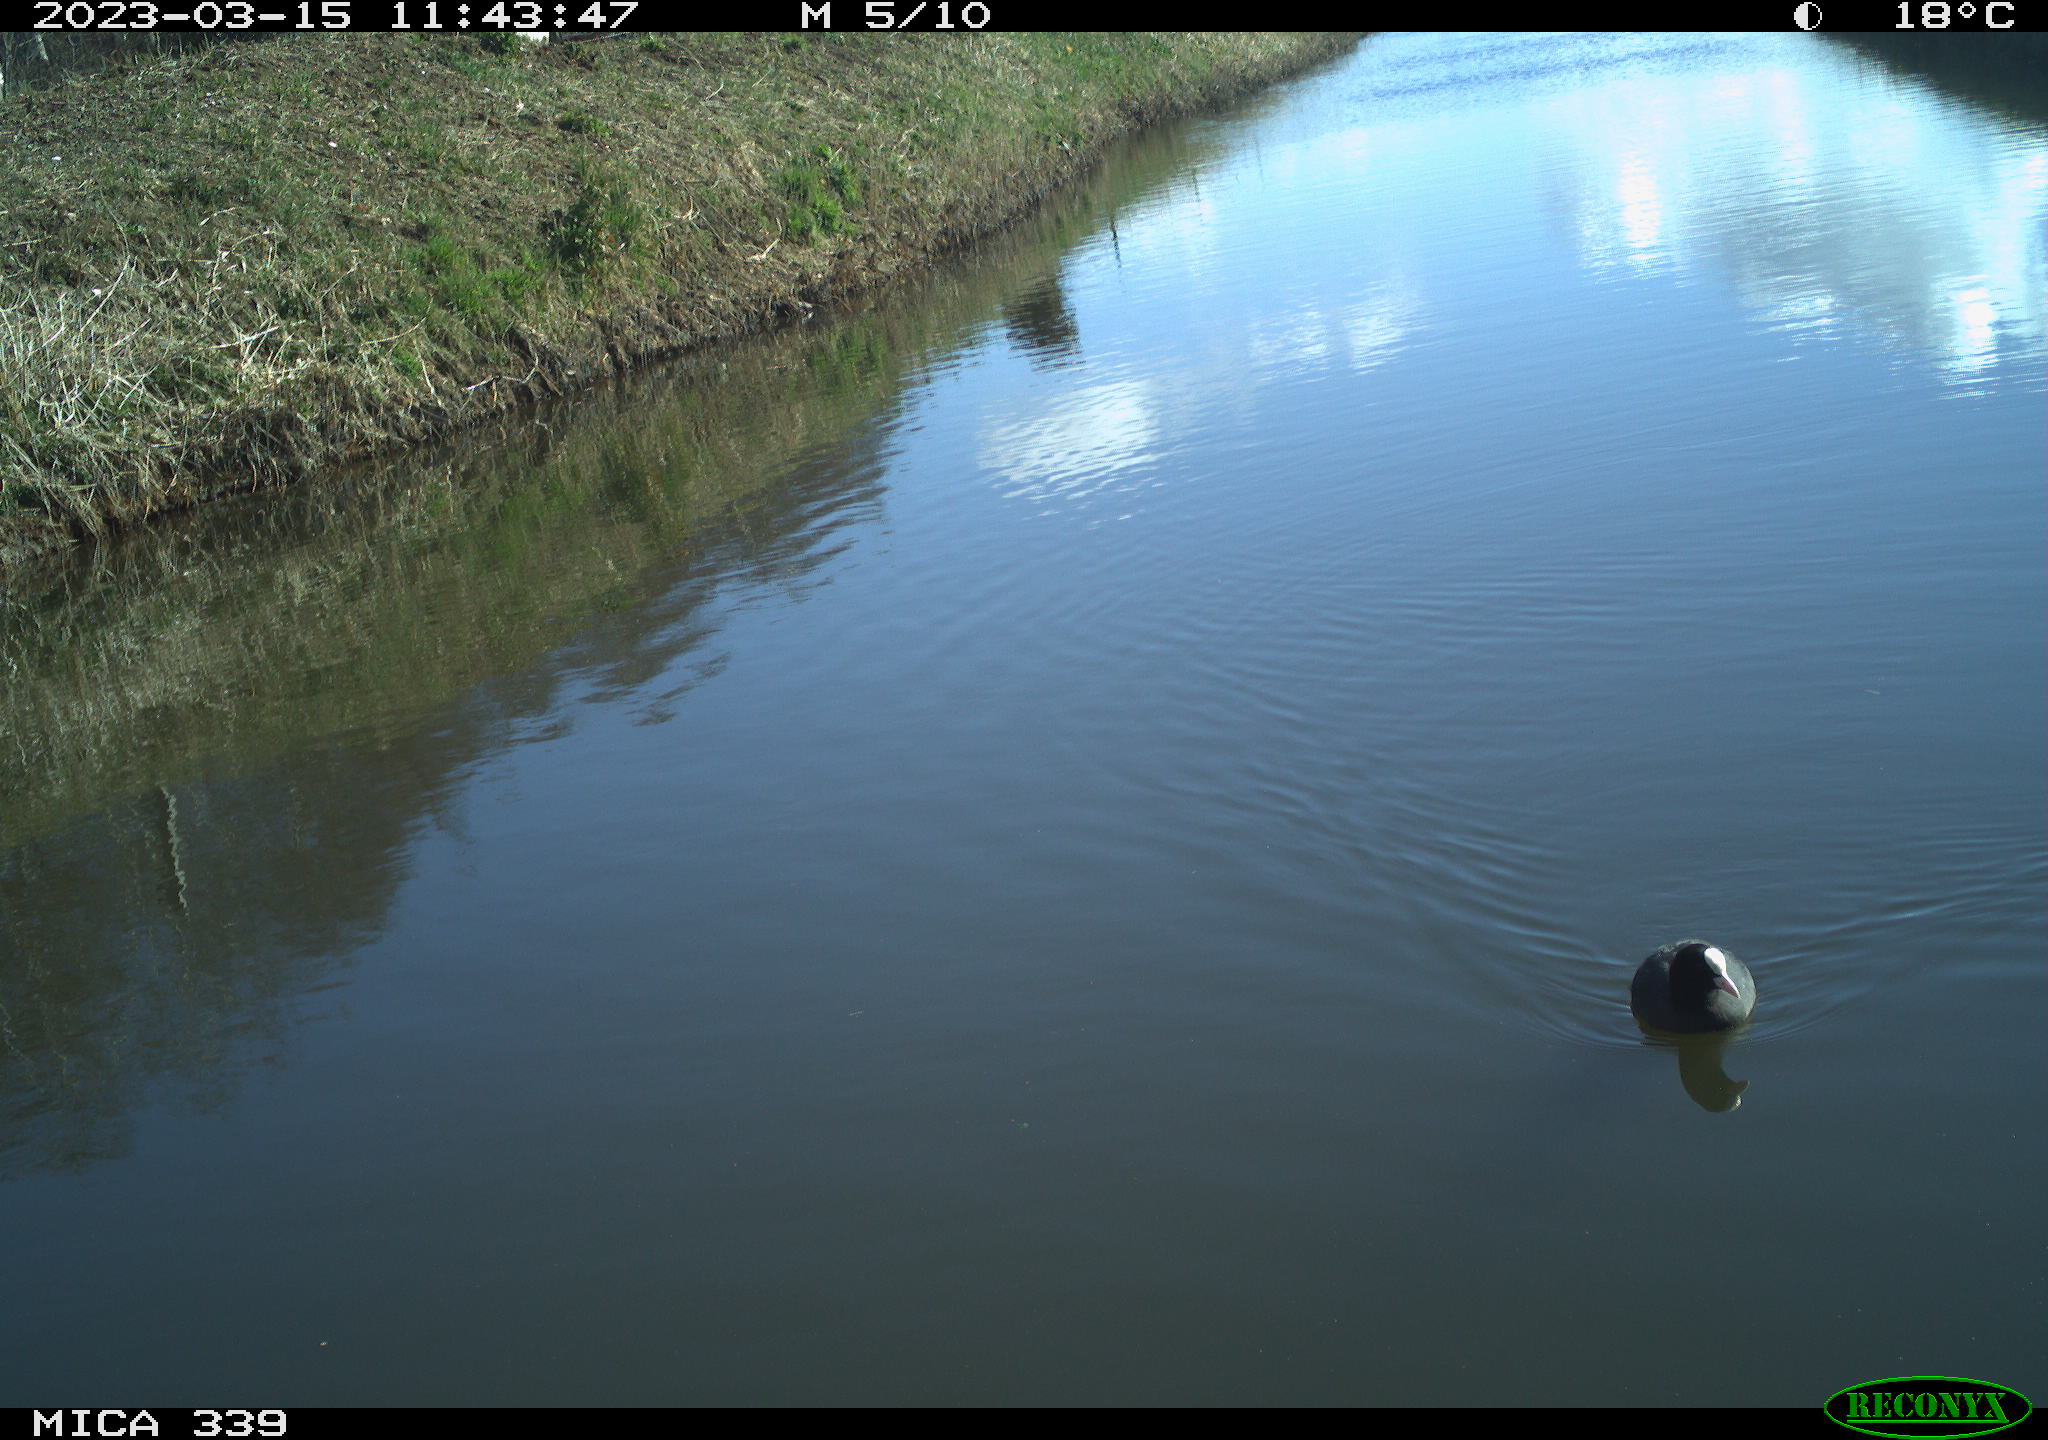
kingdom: Animalia
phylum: Chordata
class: Aves
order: Gruiformes
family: Rallidae
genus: Fulica
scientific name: Fulica atra
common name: Eurasian coot
